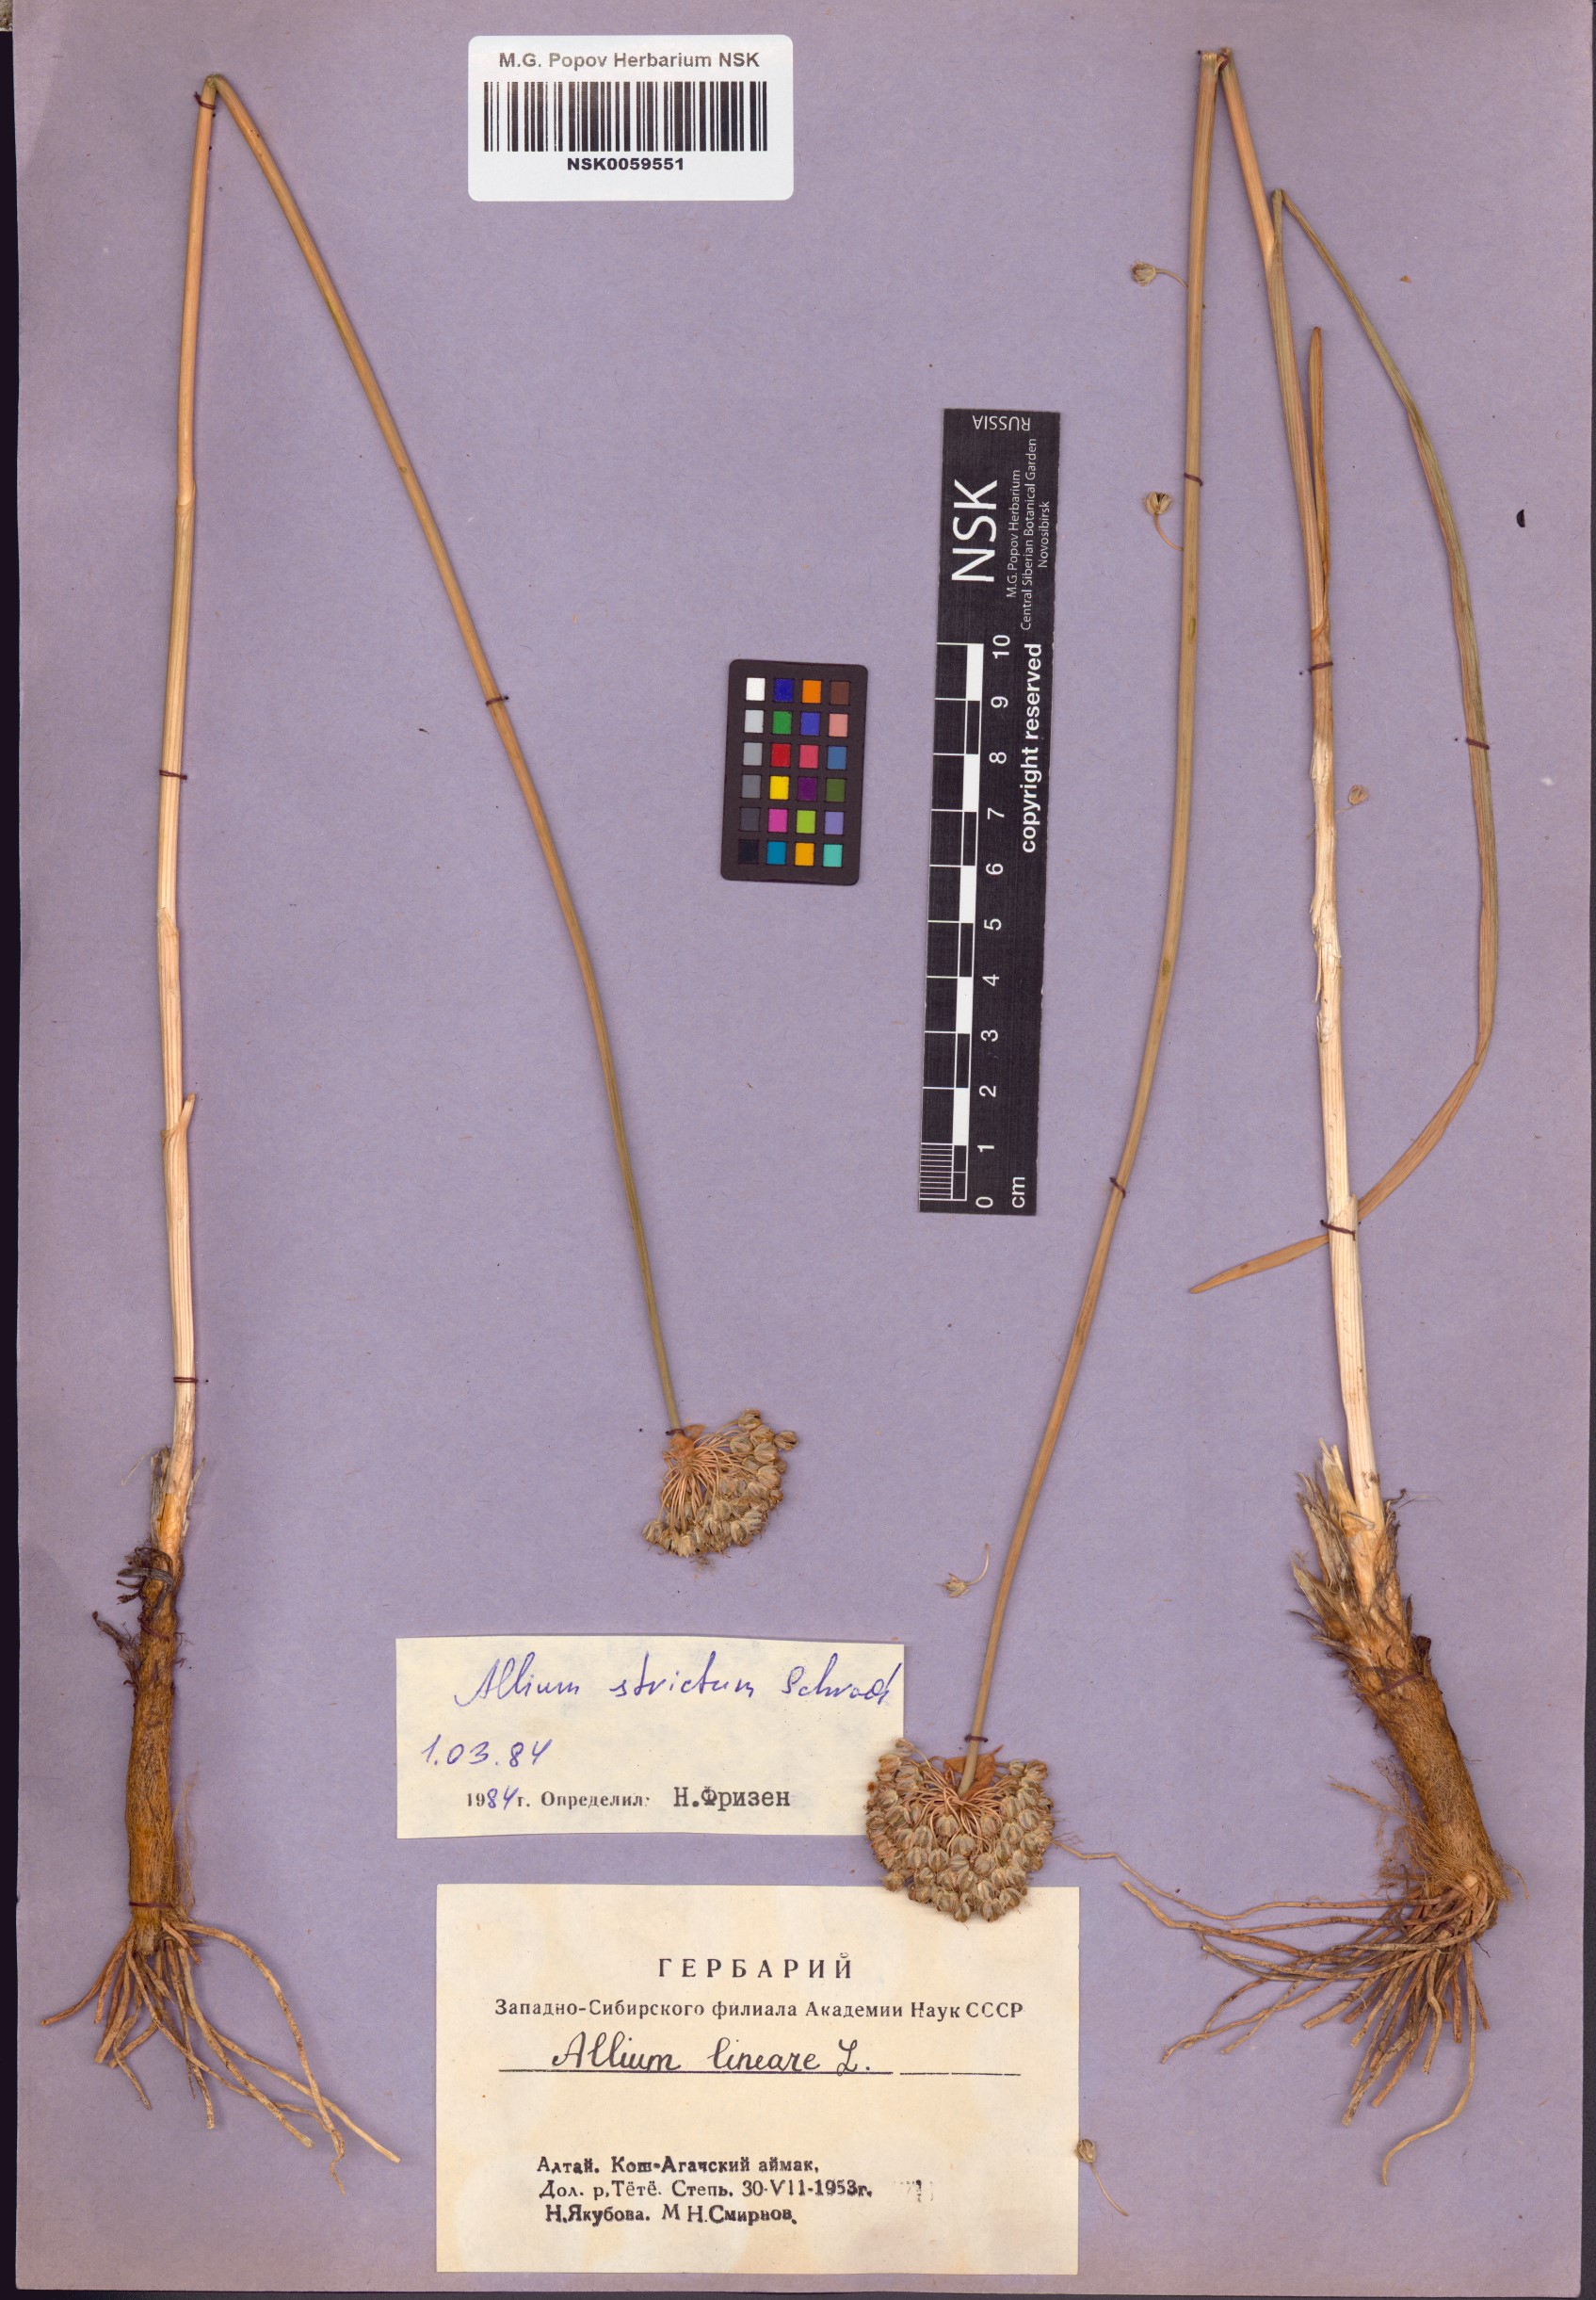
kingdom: Plantae
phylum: Tracheophyta
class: Liliopsida
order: Asparagales
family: Amaryllidaceae
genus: Allium
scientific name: Allium strictum
